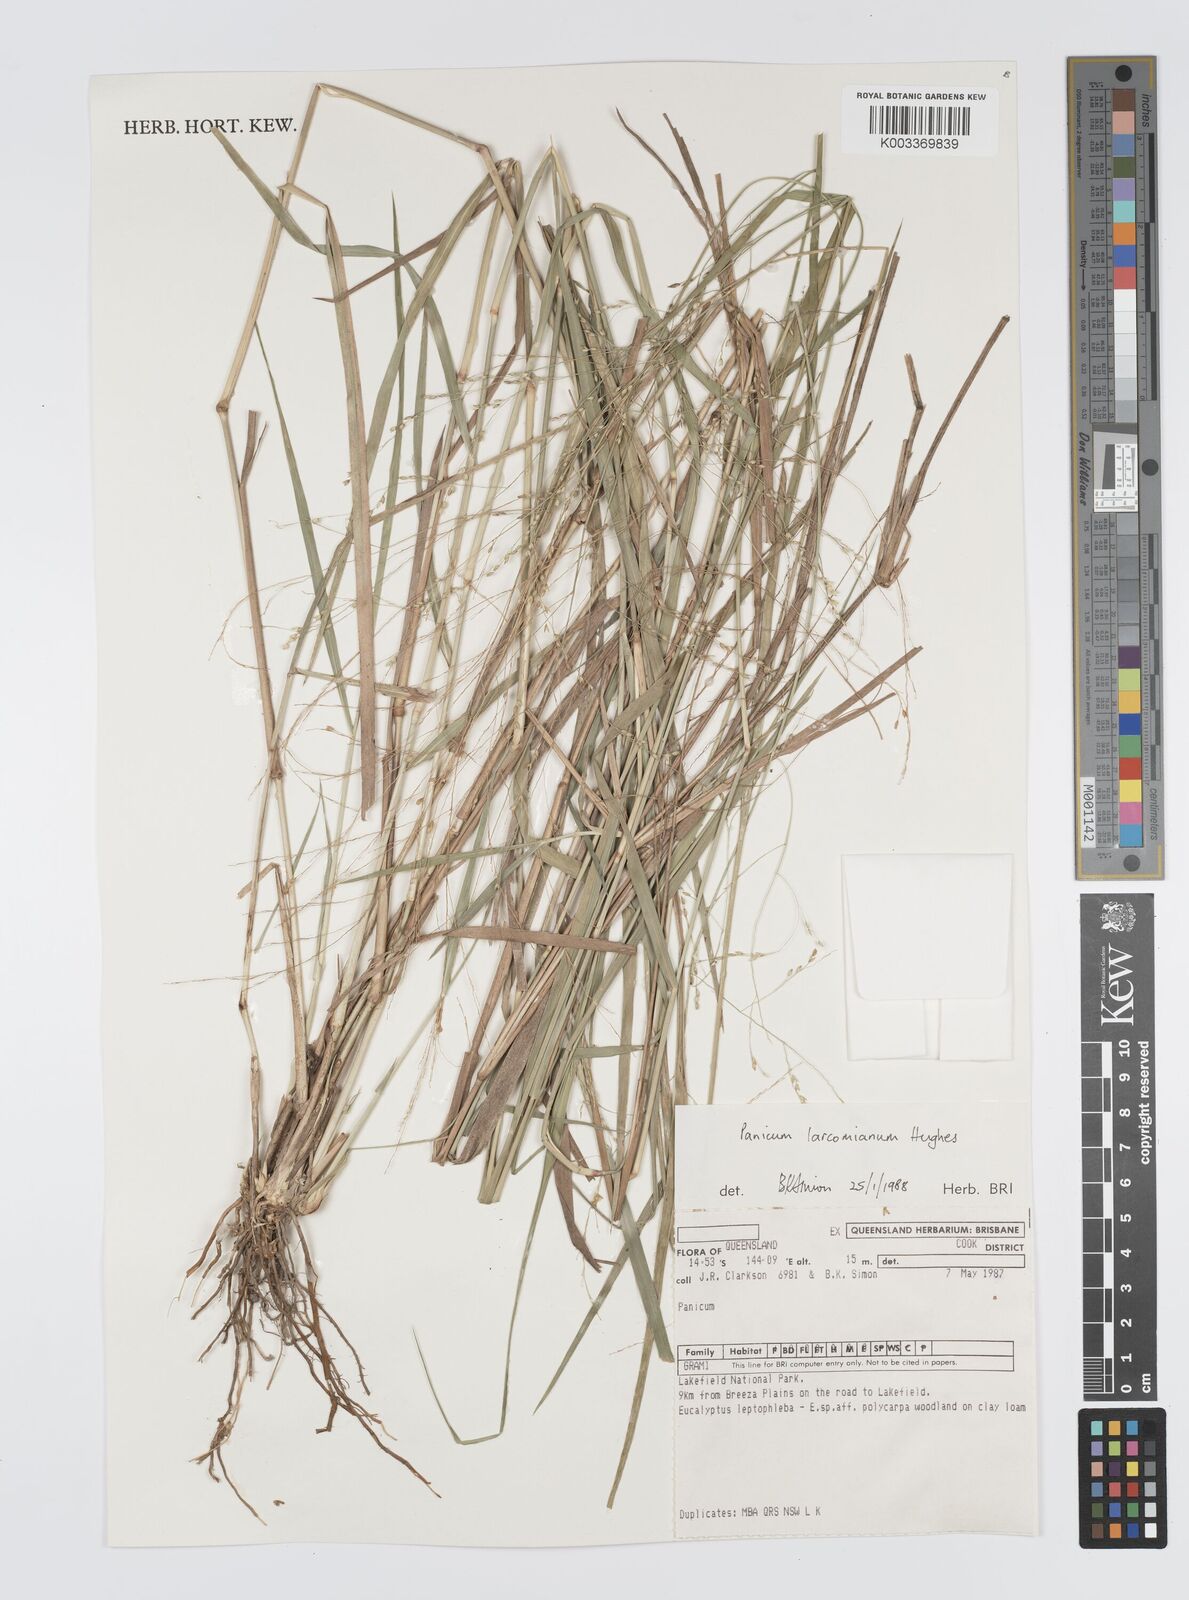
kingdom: Plantae
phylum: Tracheophyta
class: Liliopsida
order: Poales
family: Poaceae
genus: Panicum
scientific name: Panicum larcomianum
